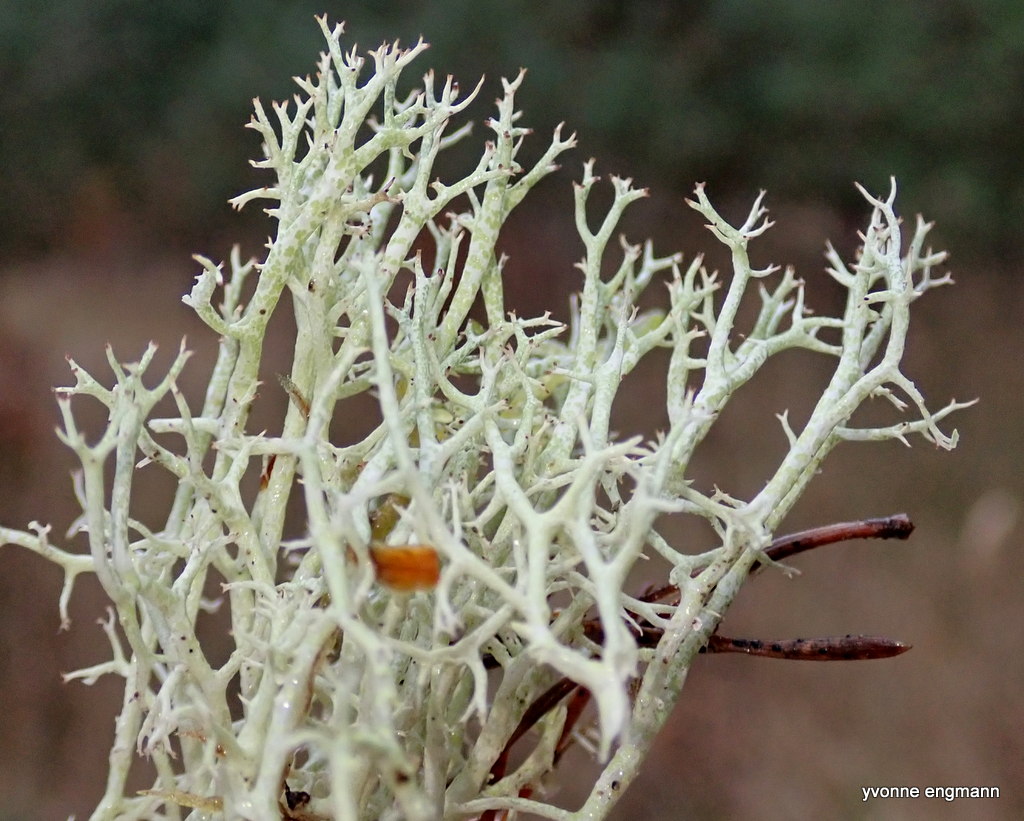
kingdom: Fungi
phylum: Ascomycota
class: Lecanoromycetes
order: Lecanorales
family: Cladoniaceae
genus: Cladonia
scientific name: Cladonia rangiformis
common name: spættet bægerlav
